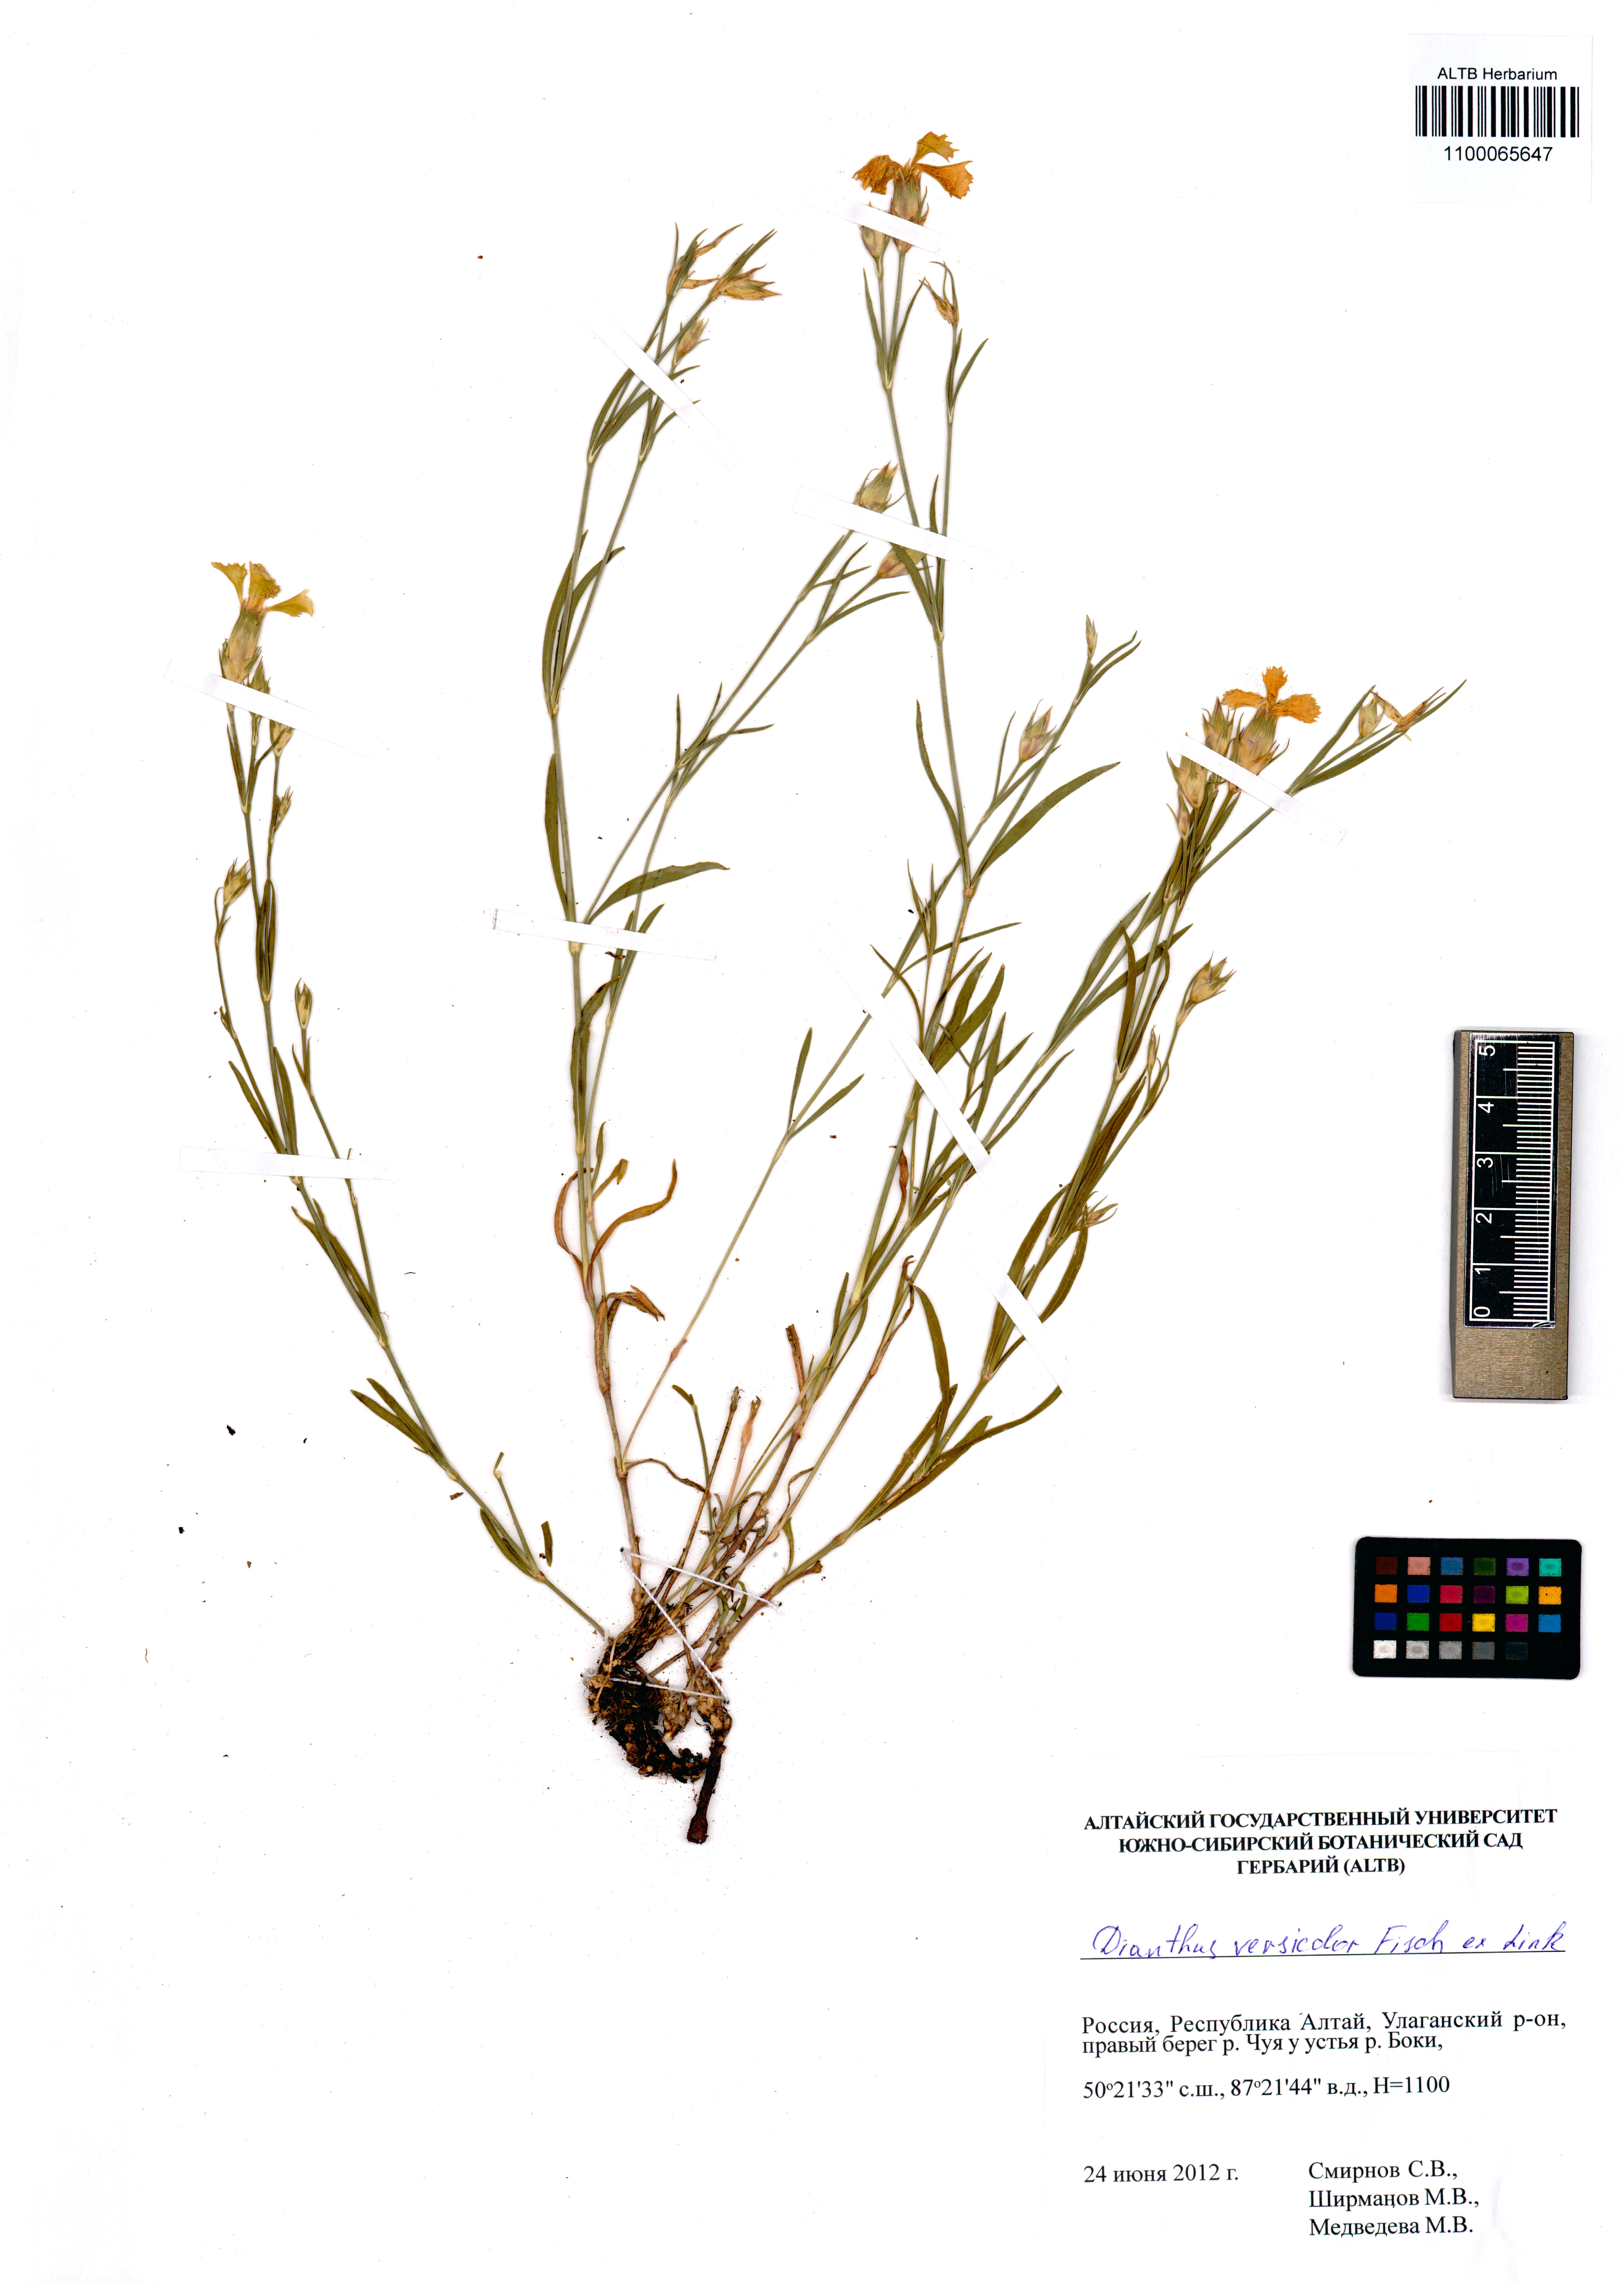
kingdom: Plantae
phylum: Tracheophyta
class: Magnoliopsida
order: Caryophyllales
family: Caryophyllaceae
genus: Dianthus
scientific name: Dianthus chinensis
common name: Rainbow pink
